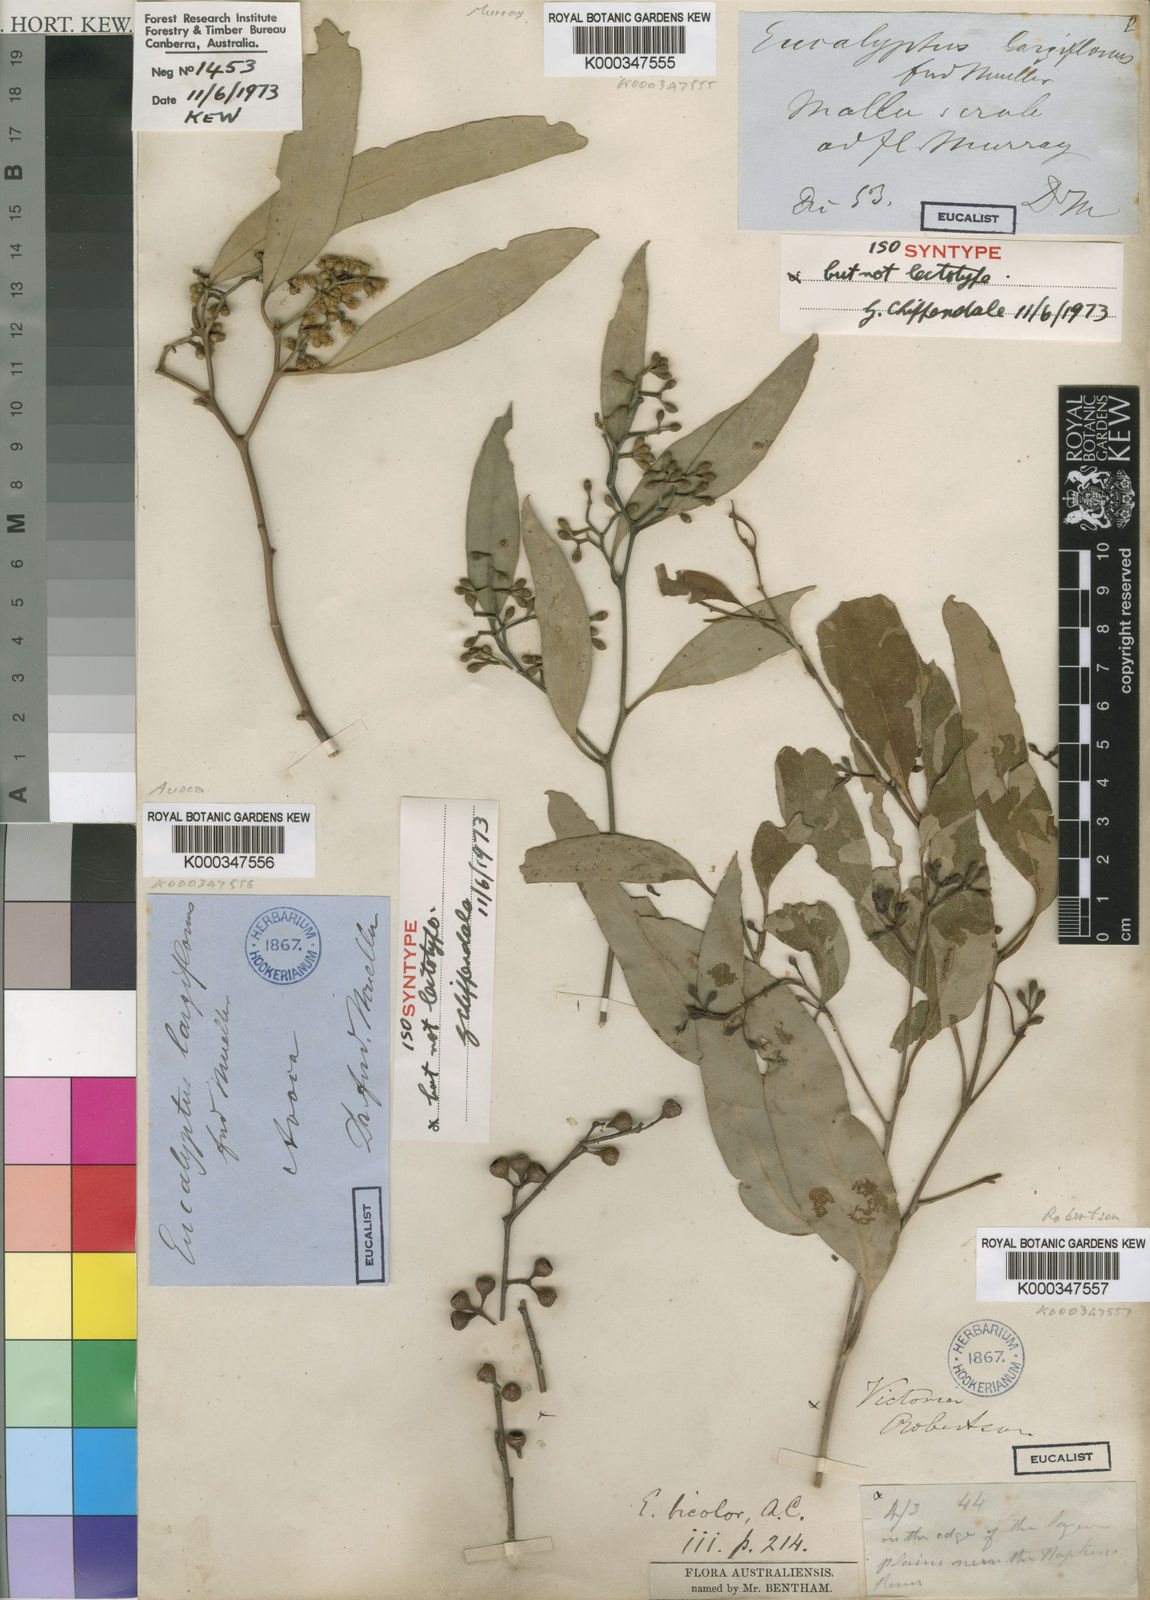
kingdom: Plantae
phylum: Tracheophyta
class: Magnoliopsida
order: Myrtales
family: Myrtaceae
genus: Eucalyptus
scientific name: Eucalyptus largiflorens
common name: Black-box
